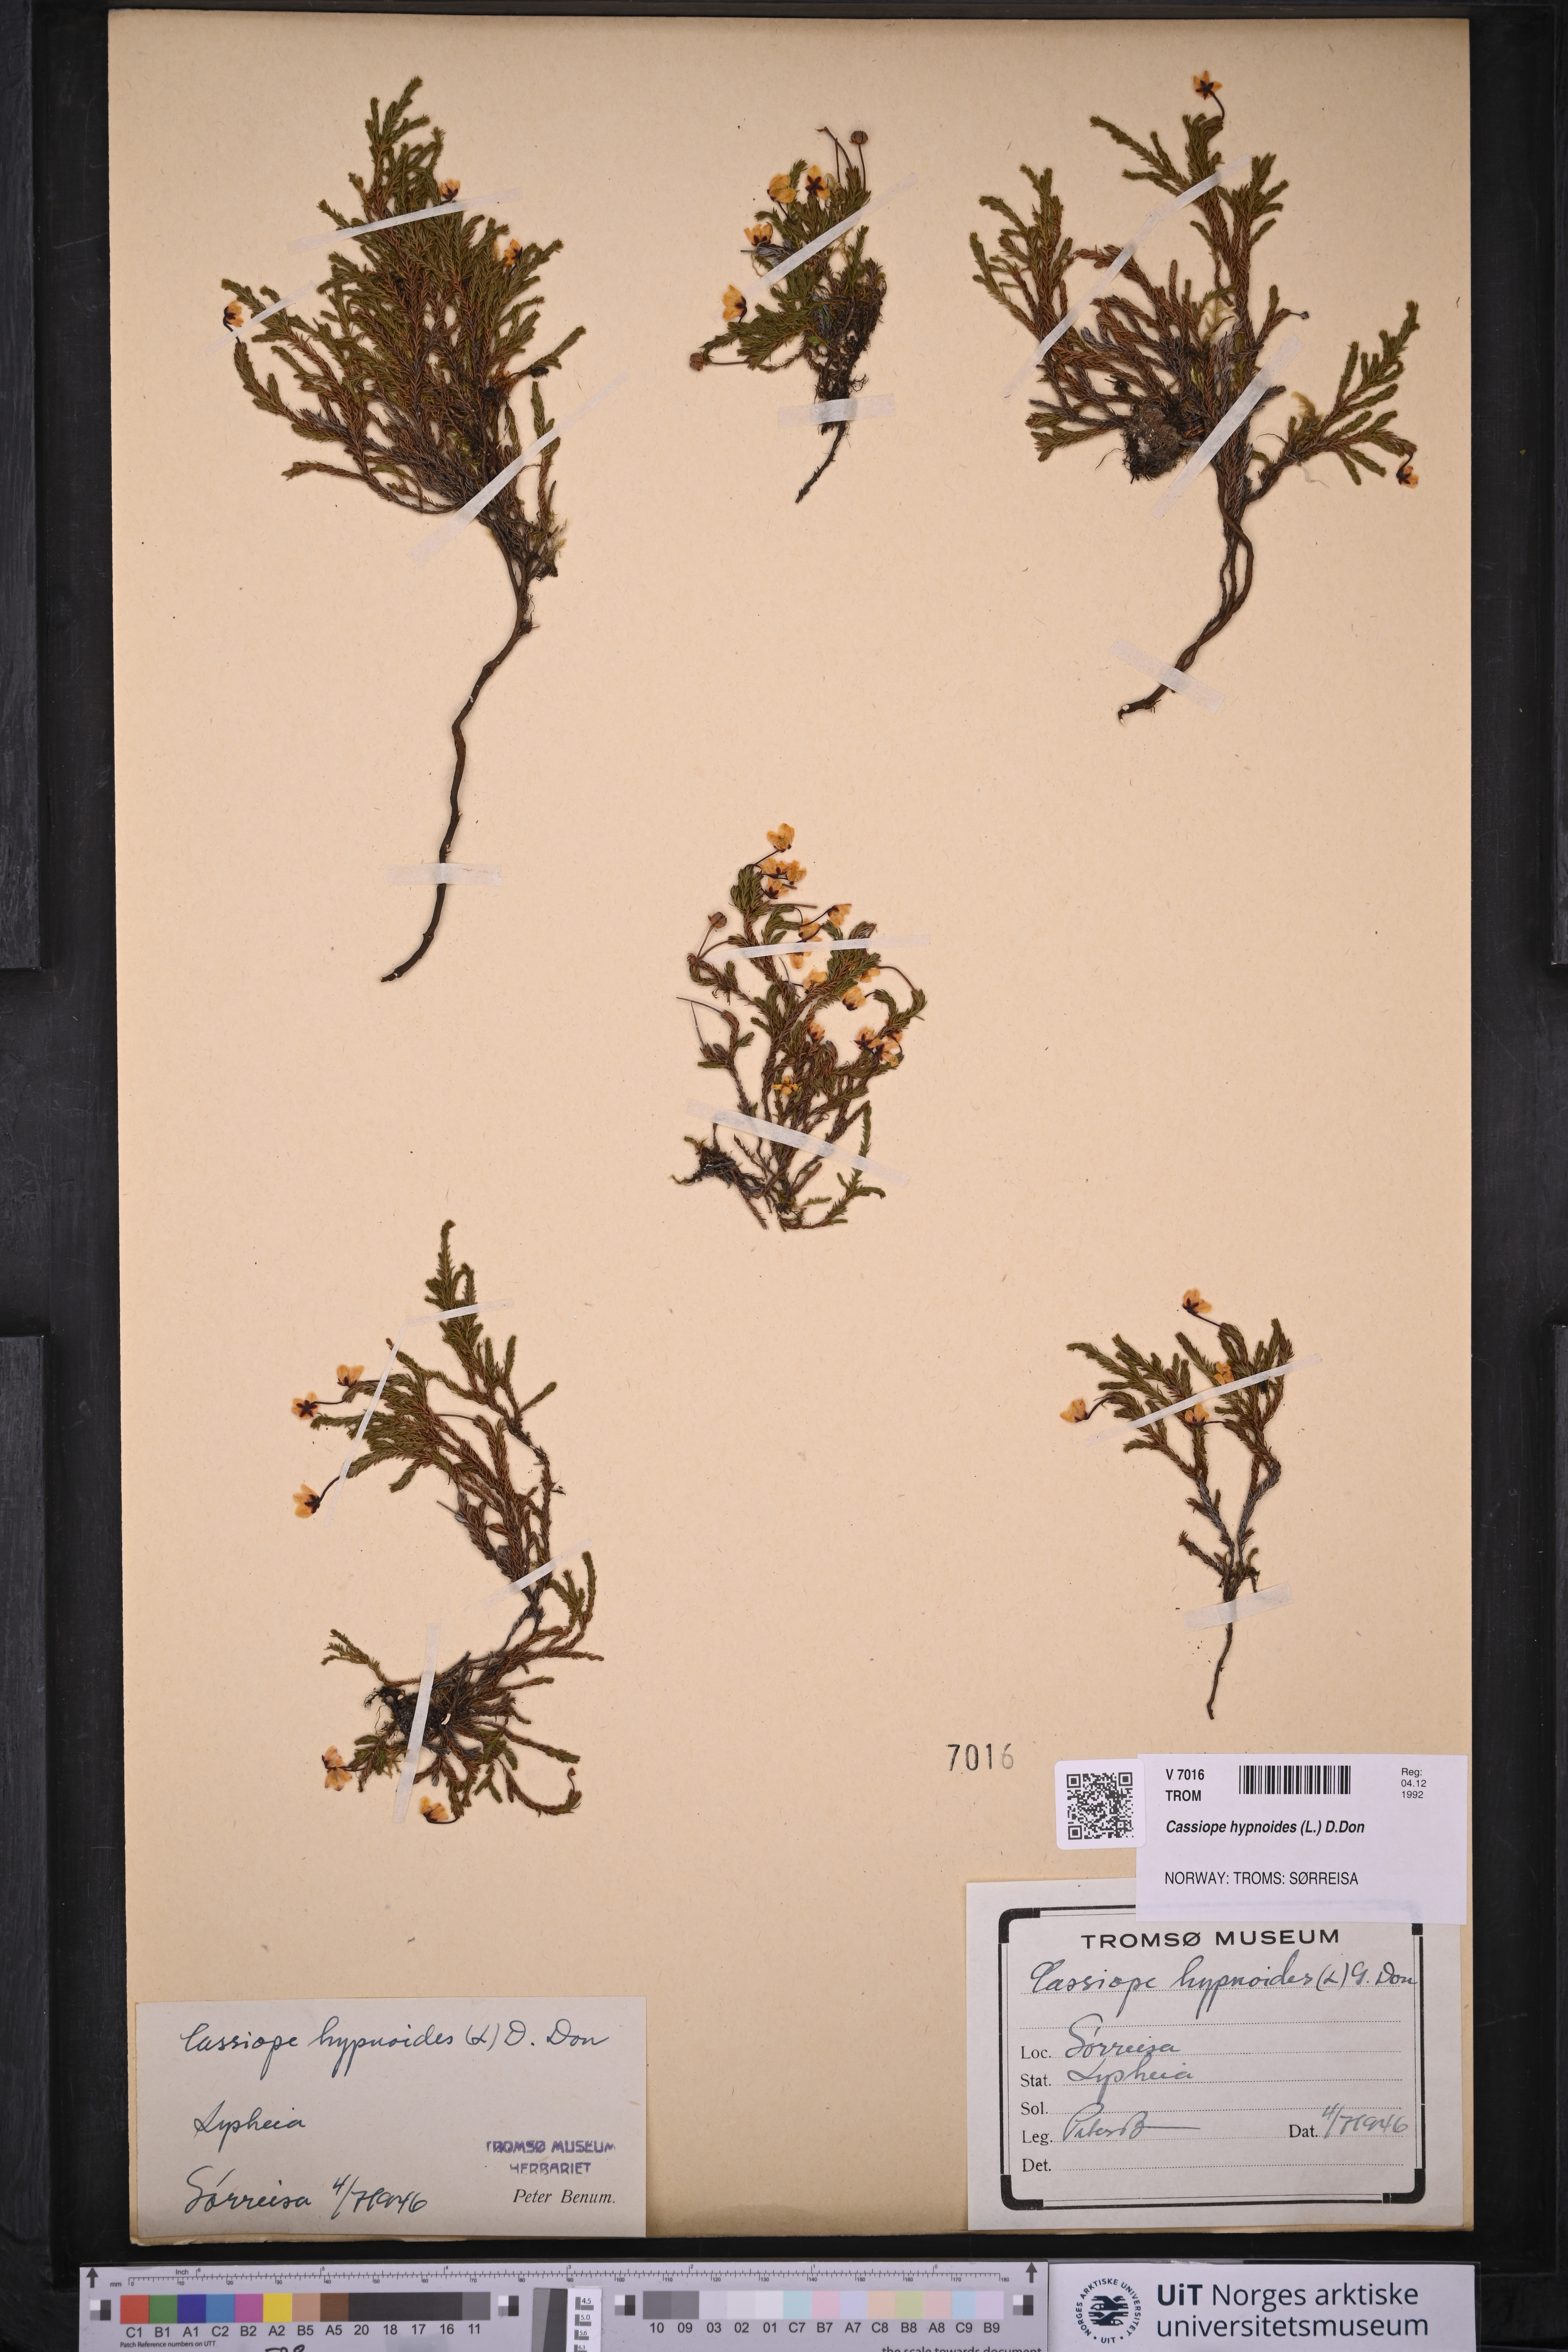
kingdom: Plantae
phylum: Tracheophyta
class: Magnoliopsida
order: Ericales
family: Ericaceae
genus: Harrimanella
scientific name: Harrimanella hypnoides
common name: Moss bell heather
